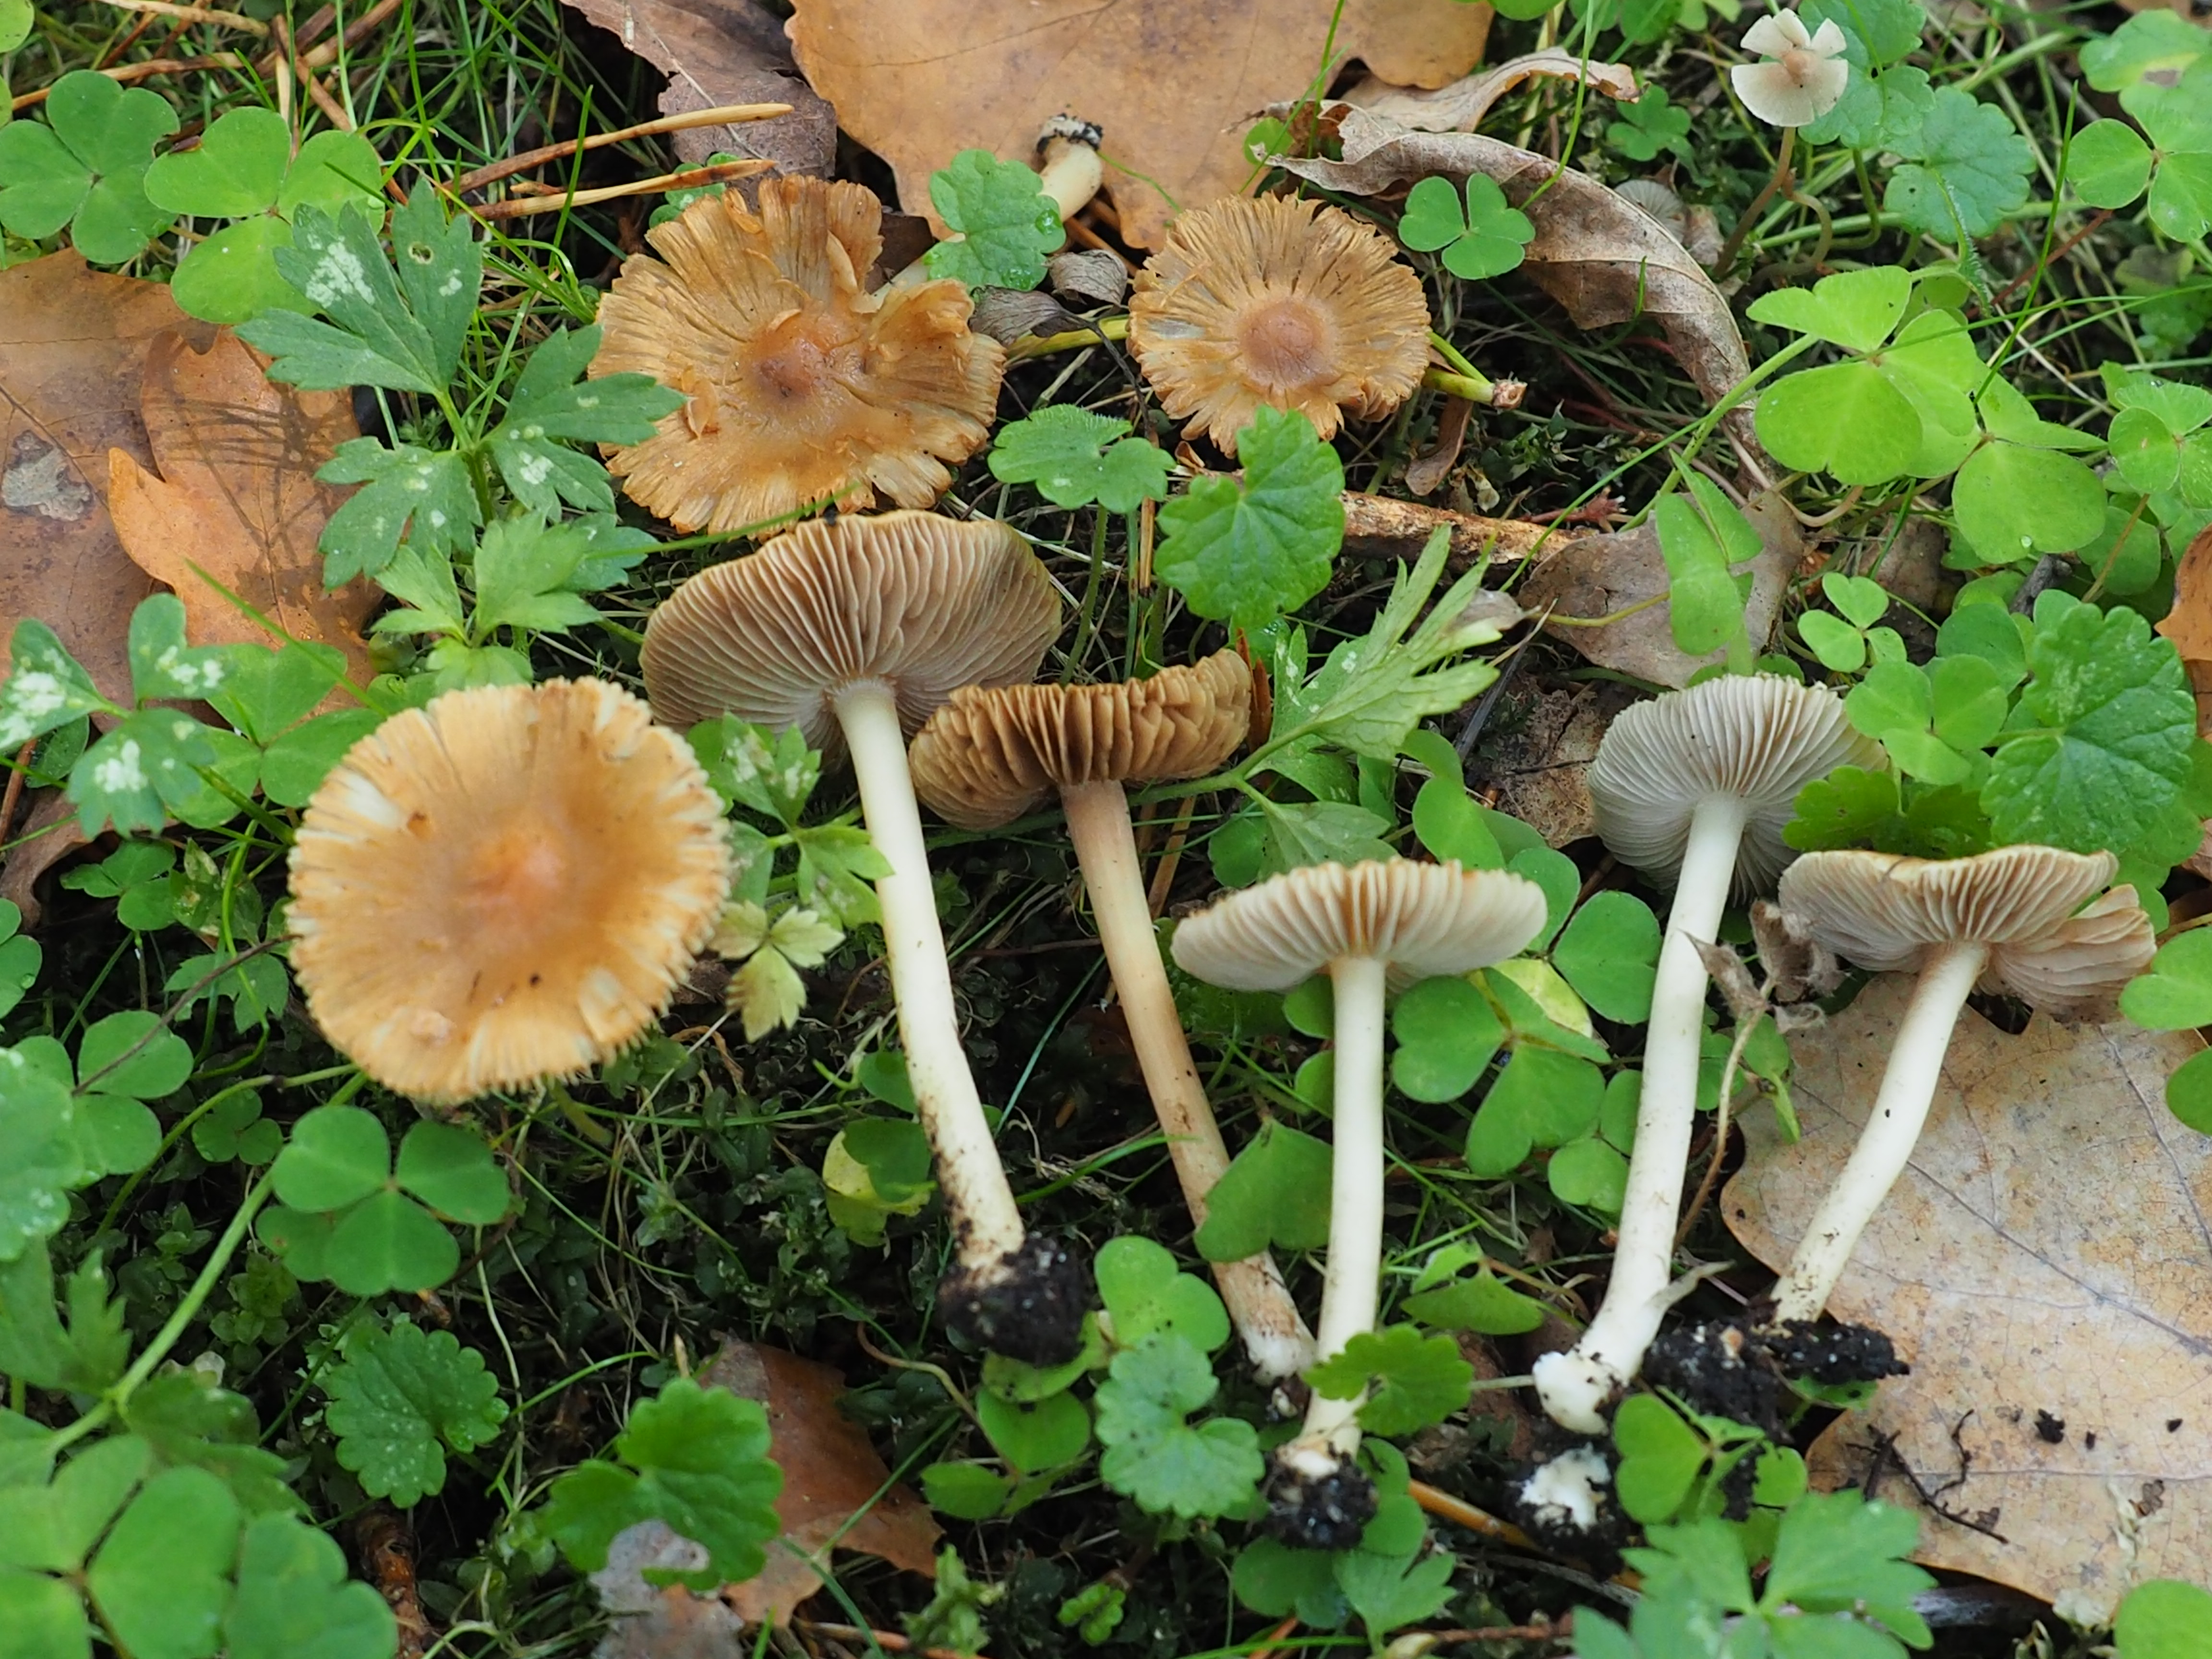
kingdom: Fungi
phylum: Basidiomycota
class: Agaricomycetes
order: Agaricales
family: Inocybaceae
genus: Inocybe
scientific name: Inocybe mixtilis
